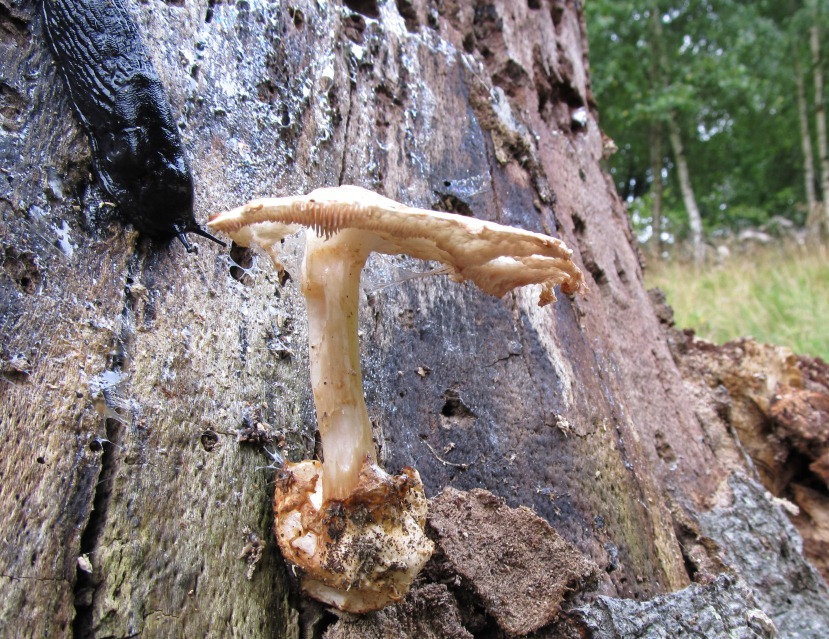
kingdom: Fungi
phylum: Basidiomycota
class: Agaricomycetes
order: Agaricales
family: Pluteaceae
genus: Volvariella
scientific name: Volvariella bombycina
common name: silkehåret posesvamp
